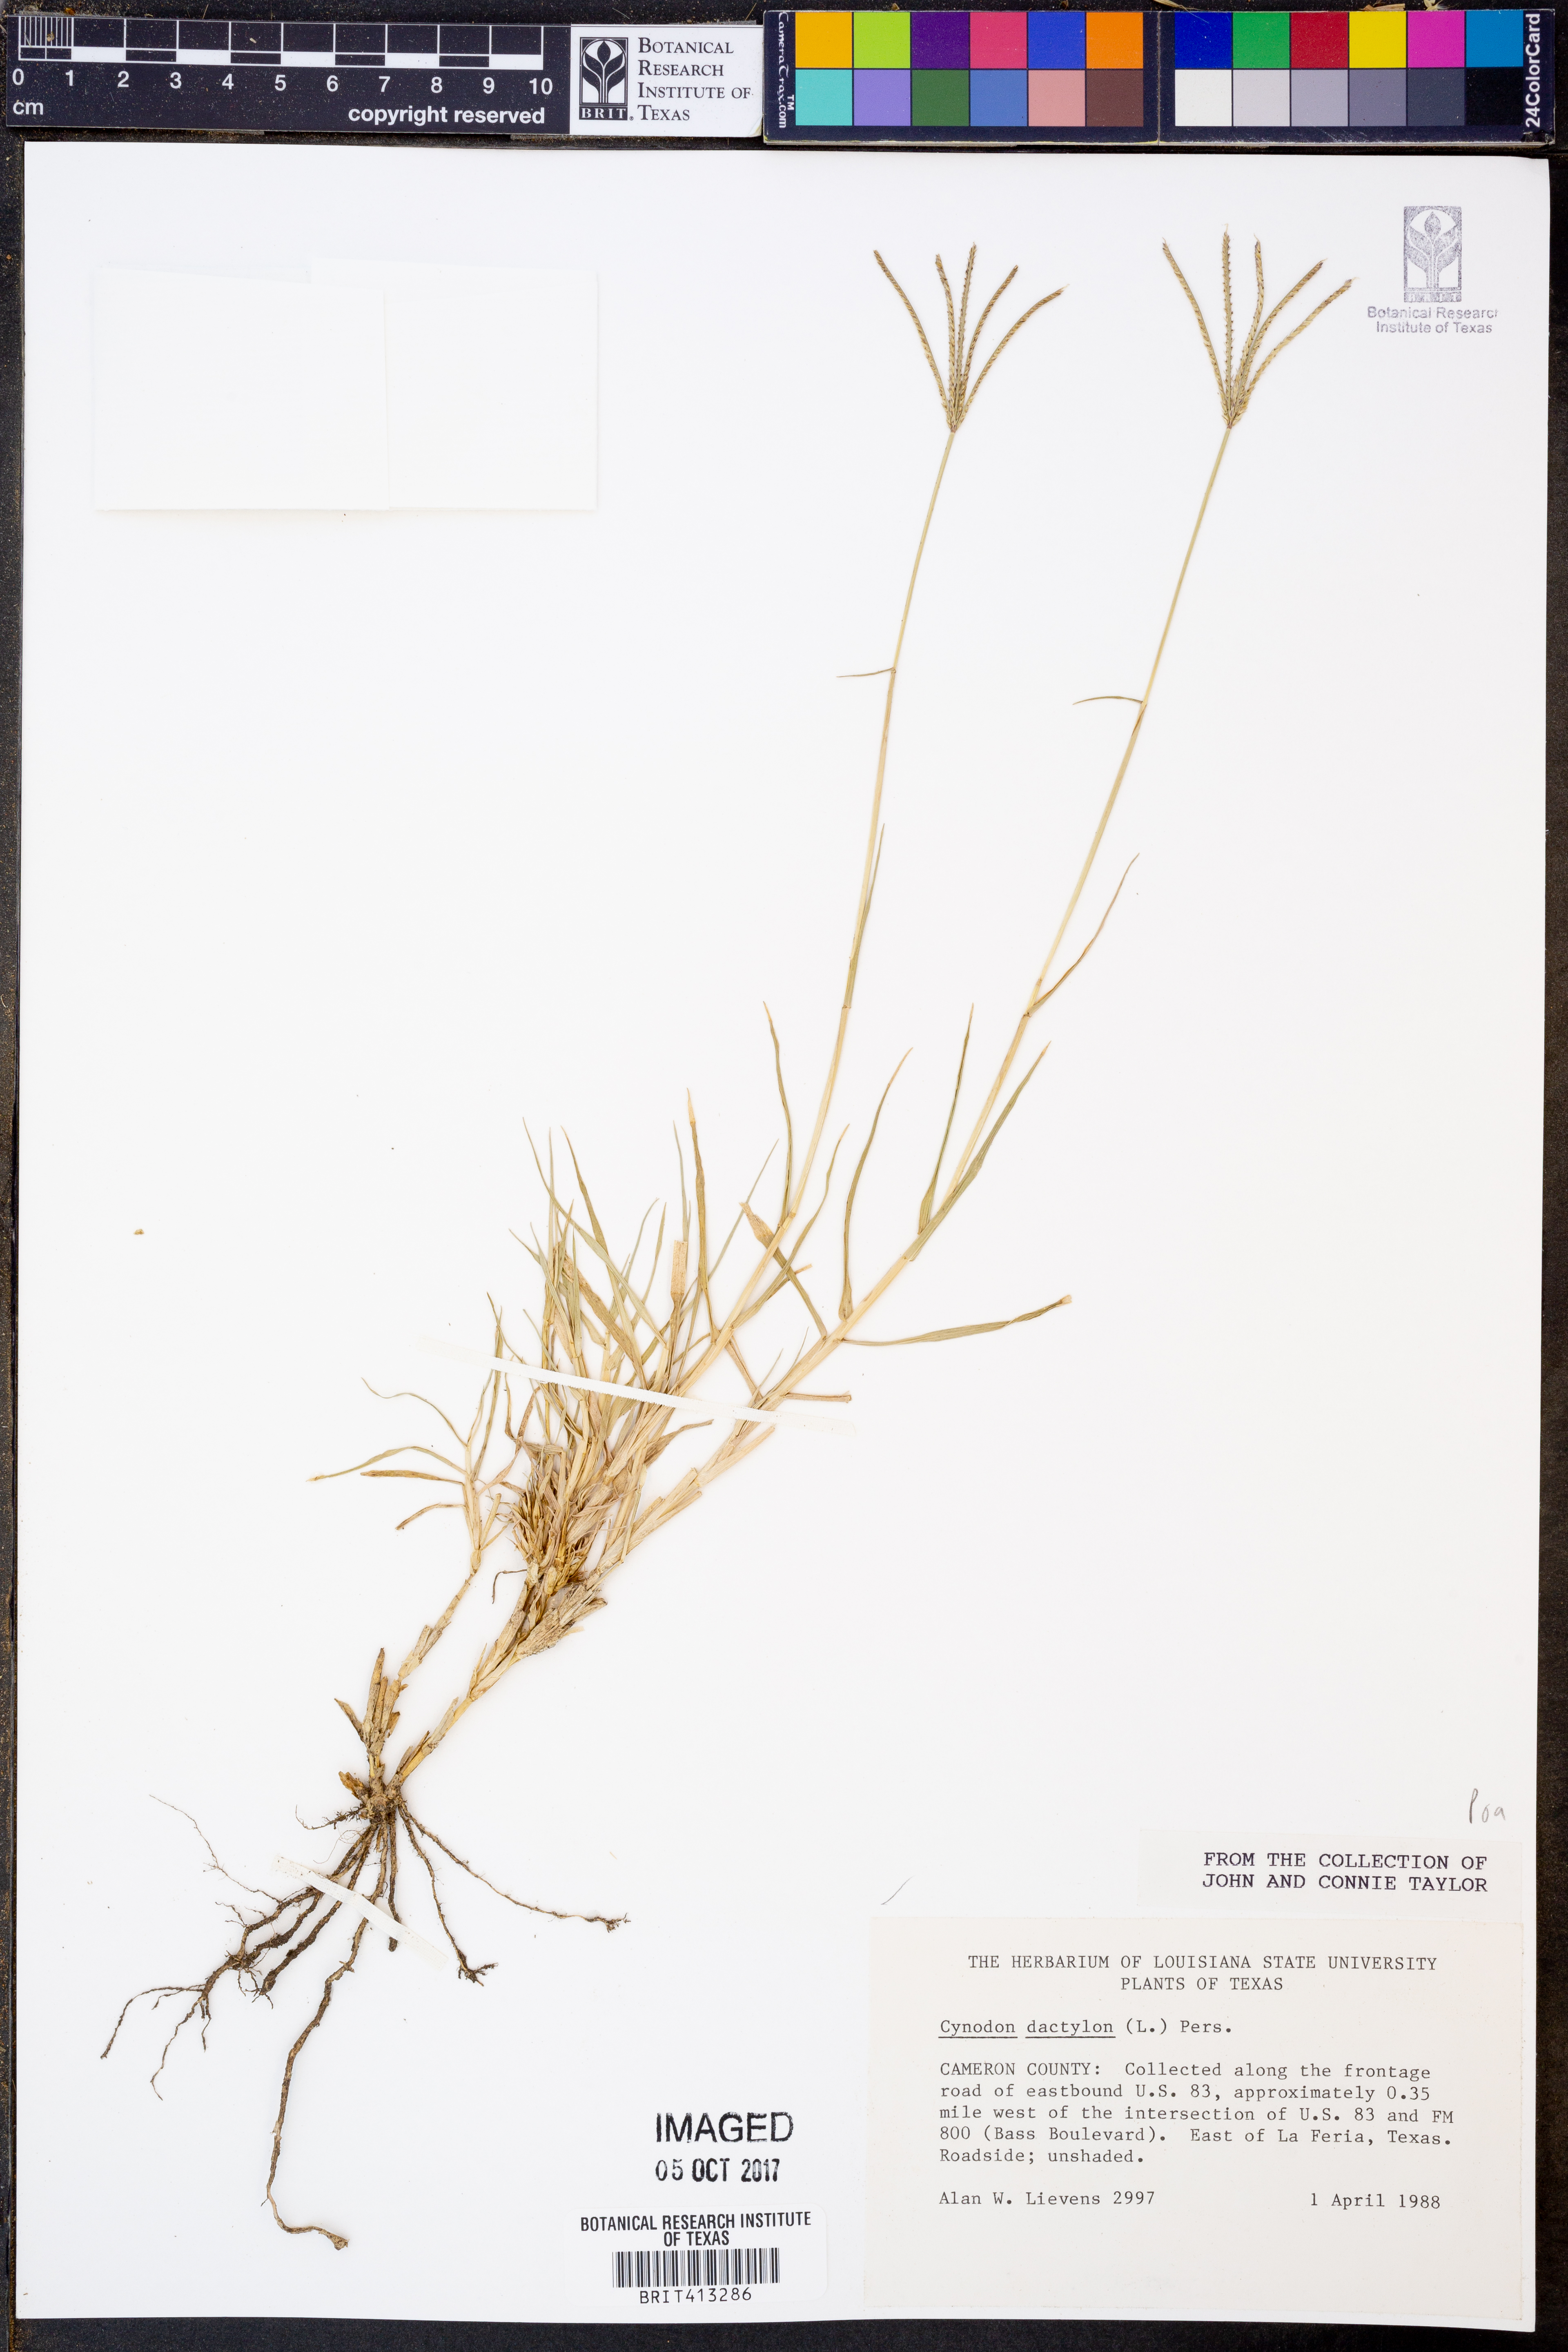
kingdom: Plantae
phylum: Tracheophyta
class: Liliopsida
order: Poales
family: Poaceae
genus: Cynodon
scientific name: Cynodon dactylon
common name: Bermuda grass
